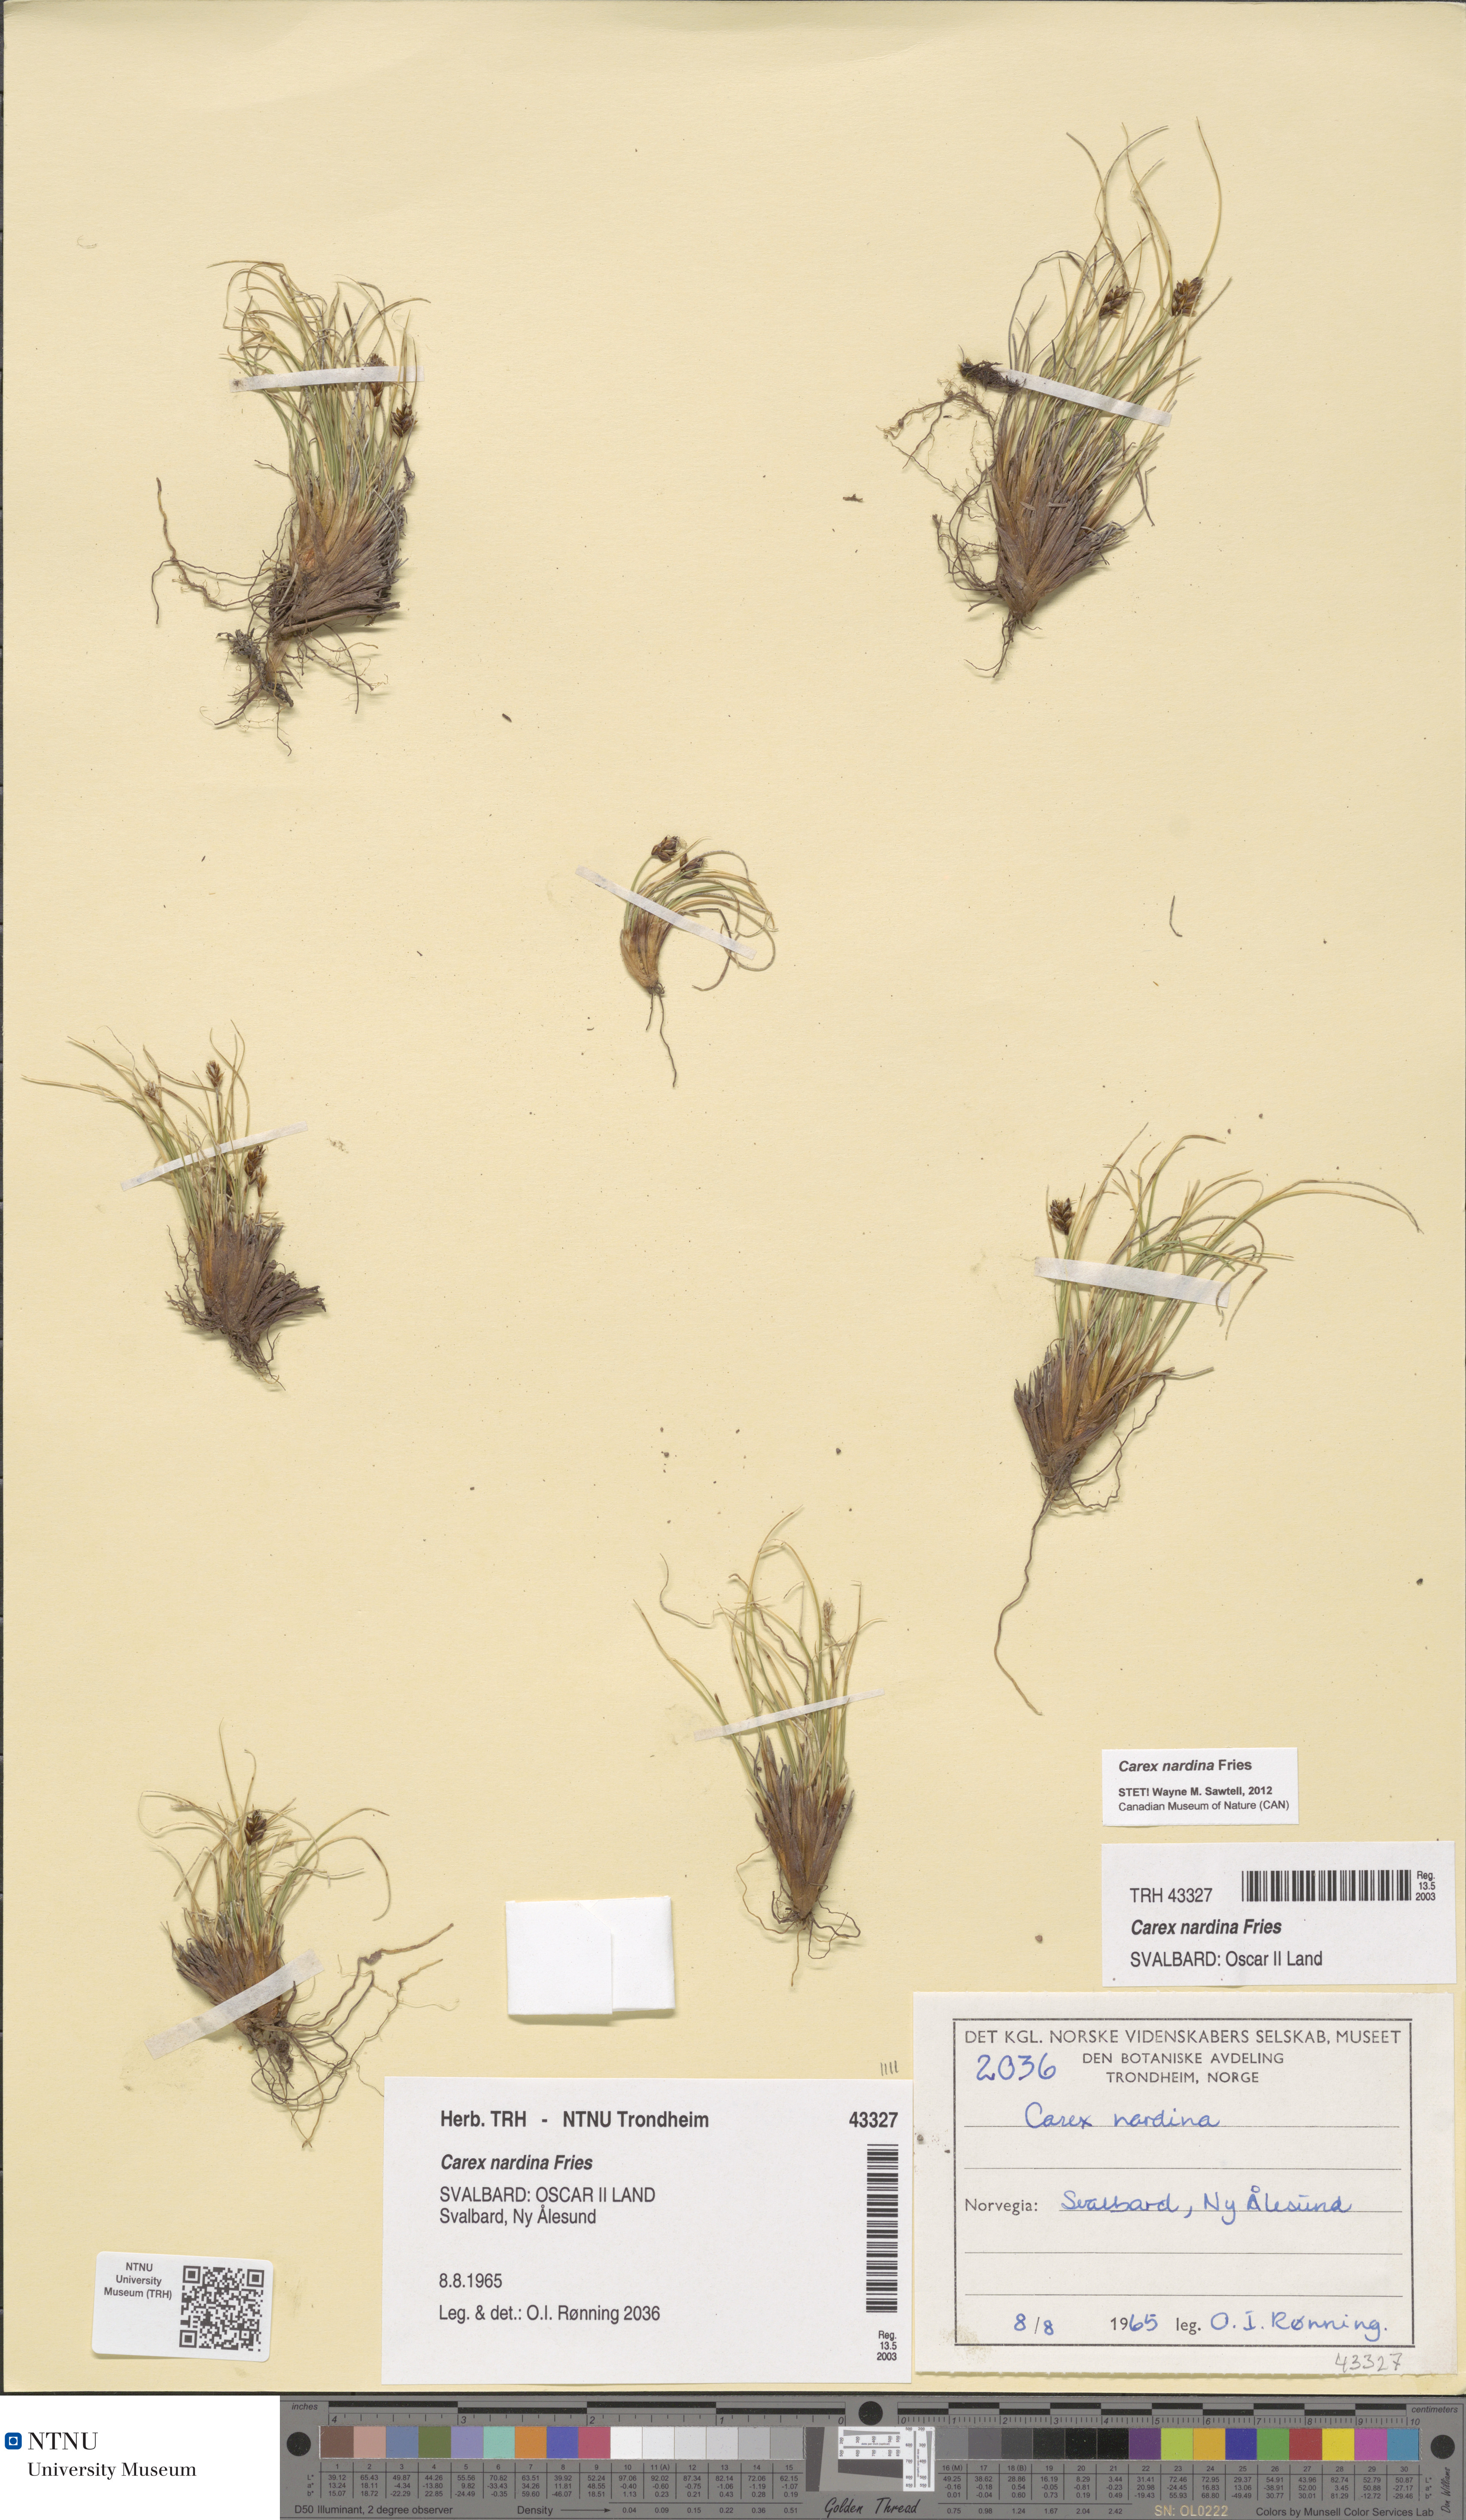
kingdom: Plantae
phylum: Tracheophyta
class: Liliopsida
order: Poales
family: Cyperaceae
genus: Carex
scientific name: Carex nardina
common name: Nard sedge
